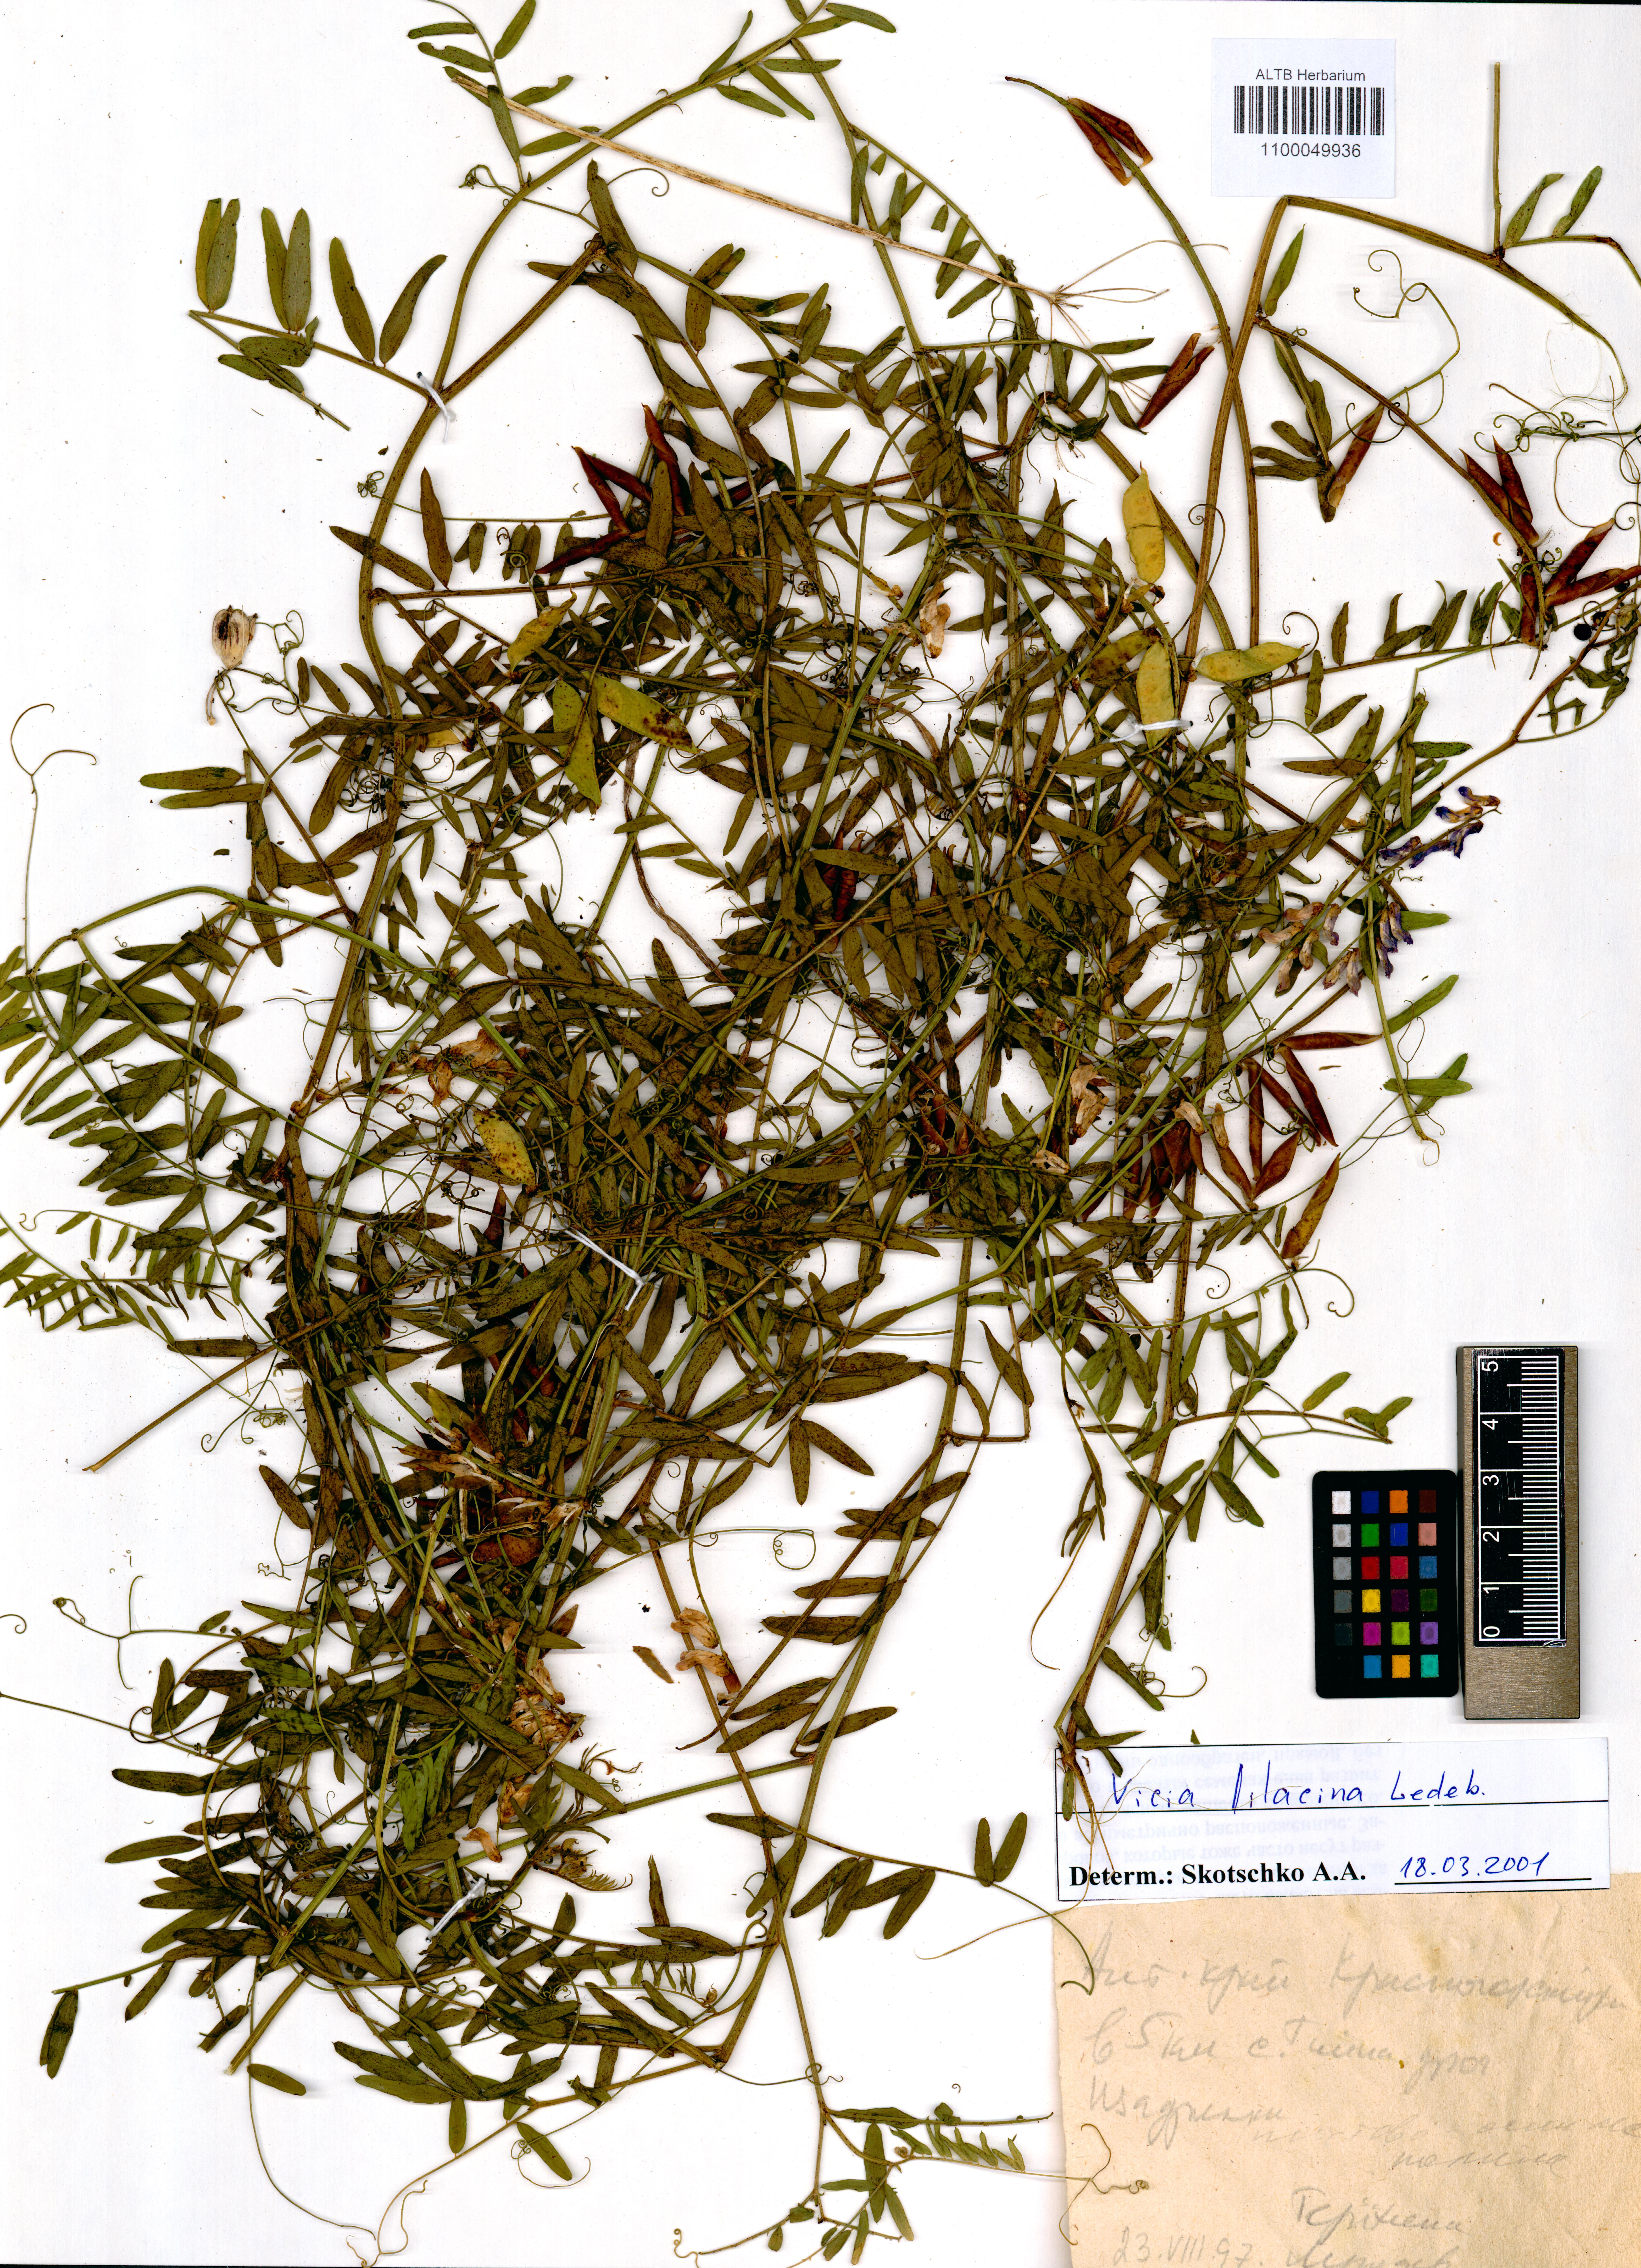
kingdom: Plantae
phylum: Tracheophyta
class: Magnoliopsida
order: Fabales
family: Fabaceae
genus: Vicia
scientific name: Vicia lilacina
